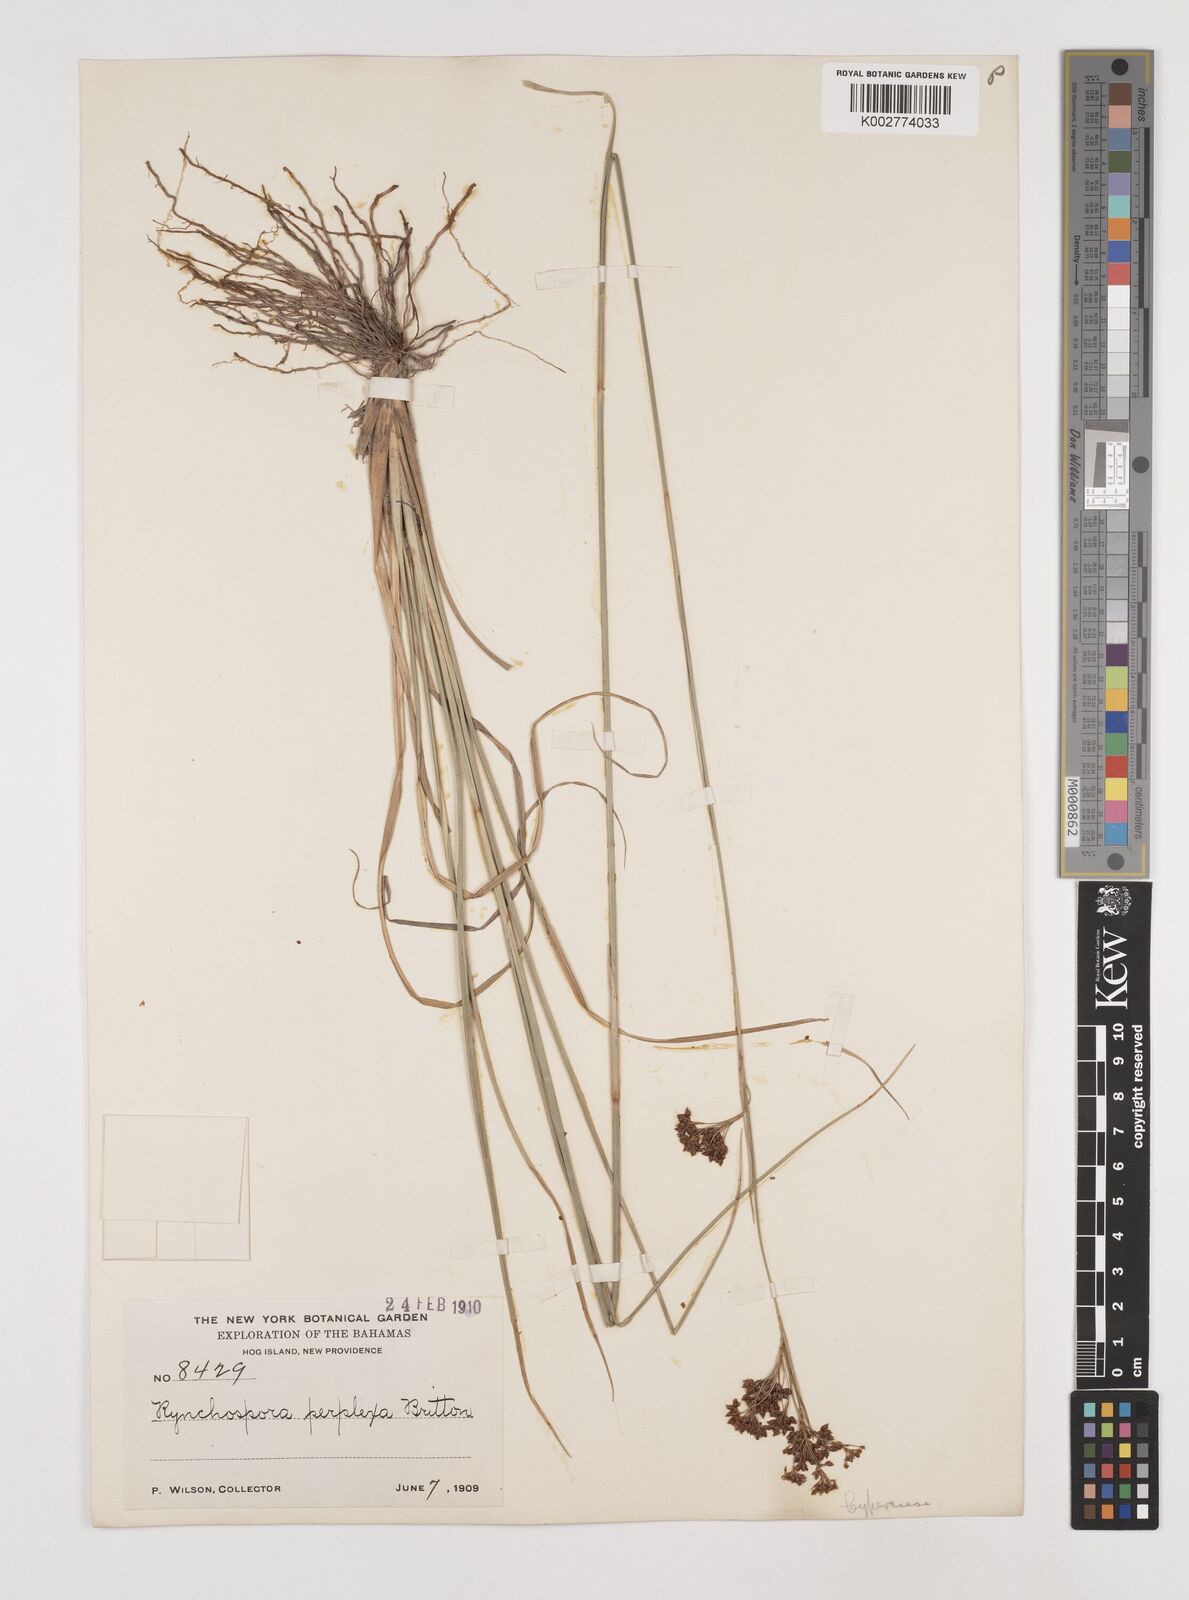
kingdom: Plantae
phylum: Tracheophyta
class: Liliopsida
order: Poales
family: Cyperaceae
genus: Rhynchospora
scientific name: Rhynchospora perplexa
